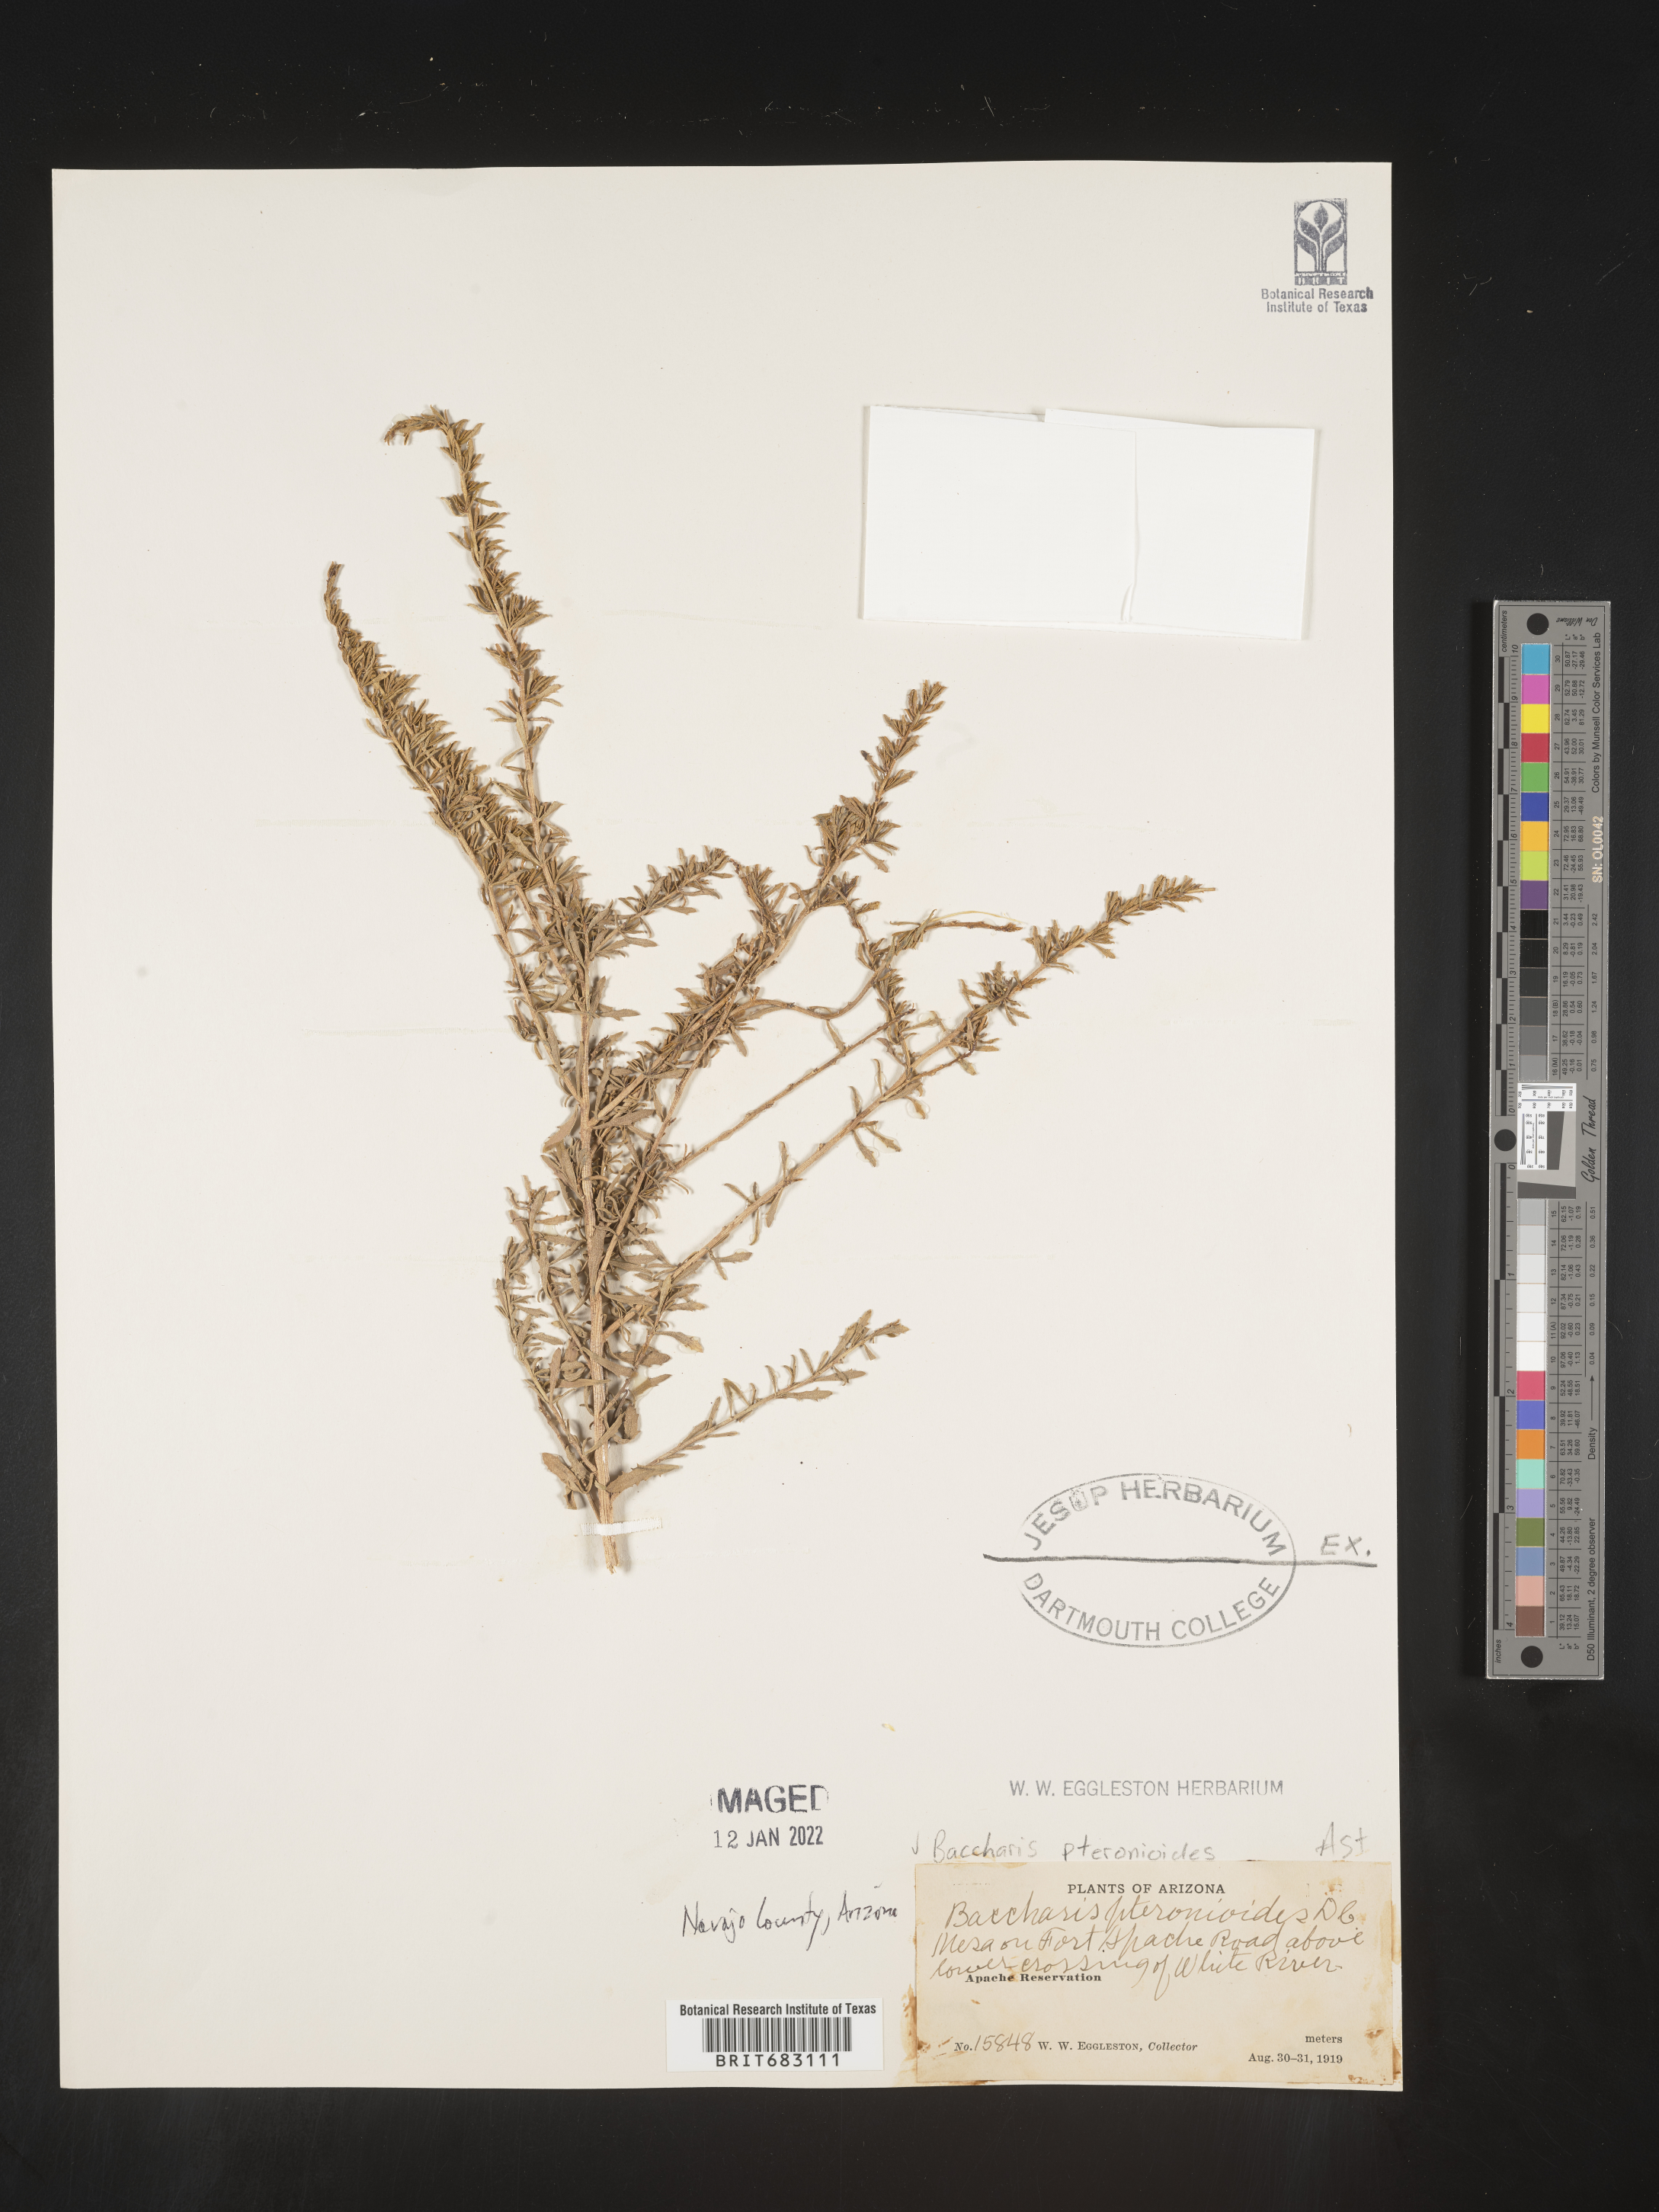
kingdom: Plantae
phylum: Tracheophyta
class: Magnoliopsida
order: Asterales
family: Asteraceae
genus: Baccharis
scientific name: Baccharis pteronioides
